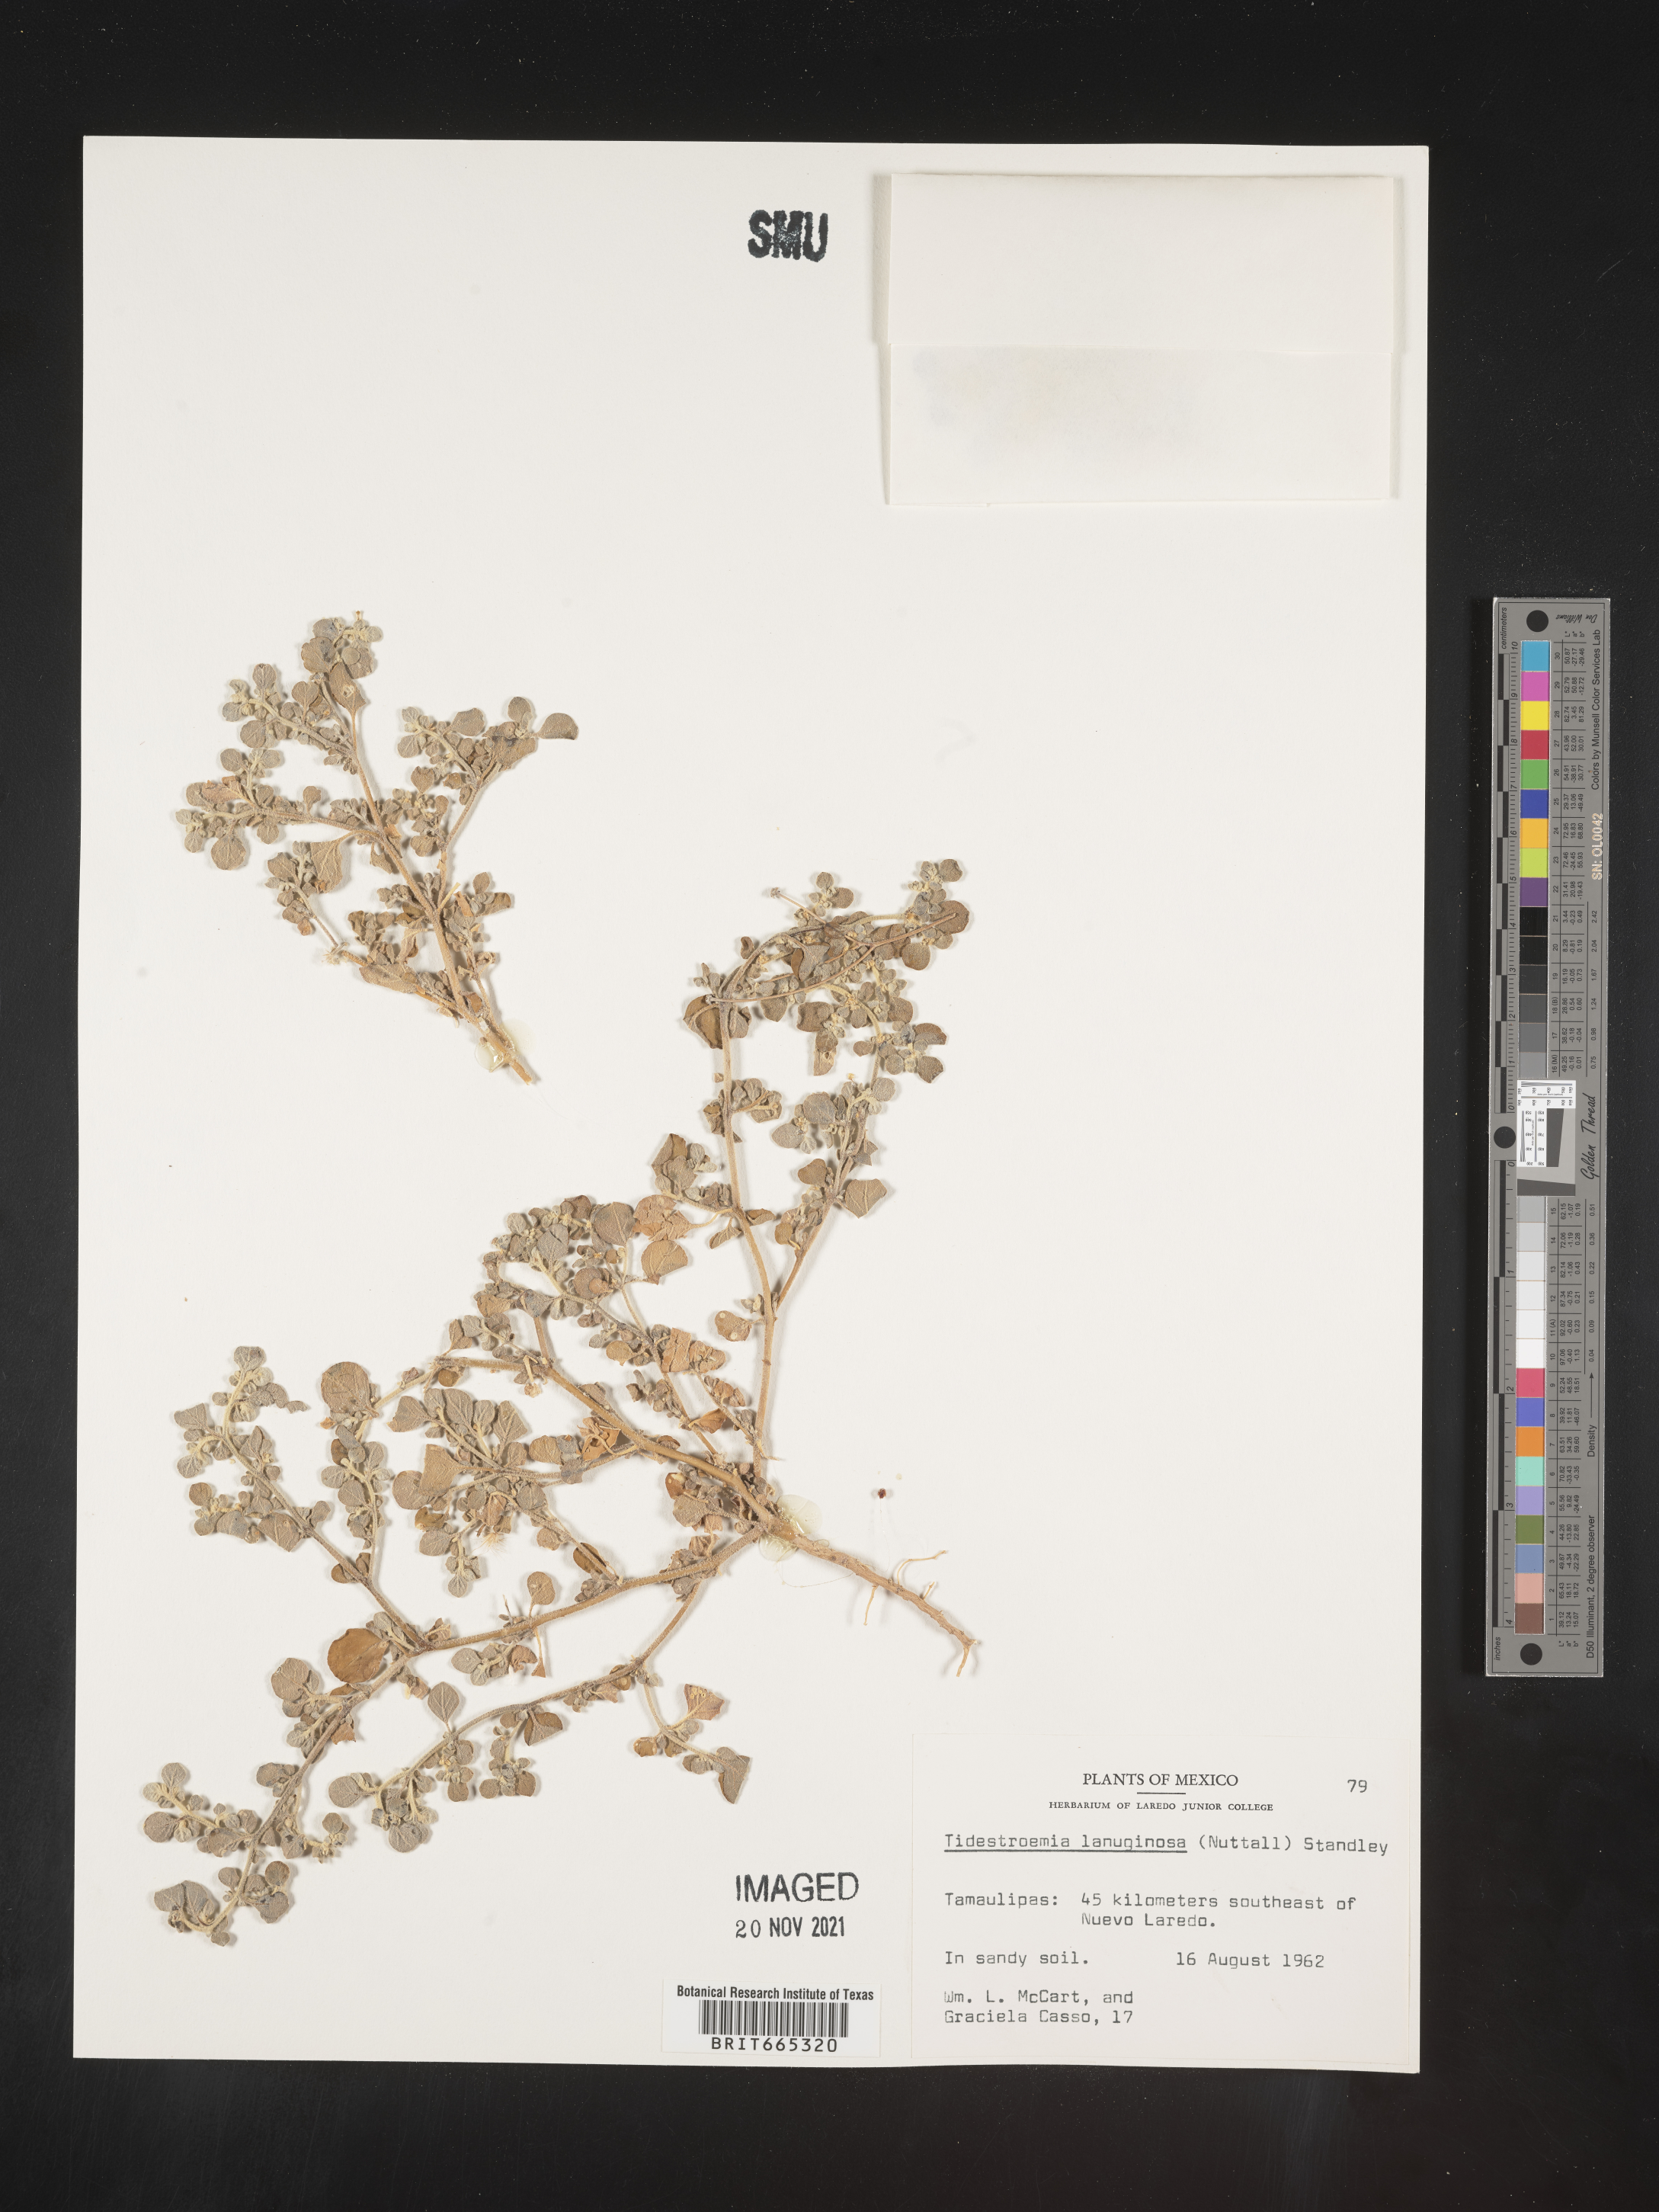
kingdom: Plantae
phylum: Tracheophyta
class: Magnoliopsida
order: Caryophyllales
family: Amaranthaceae
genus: Tidestromia
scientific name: Tidestromia
